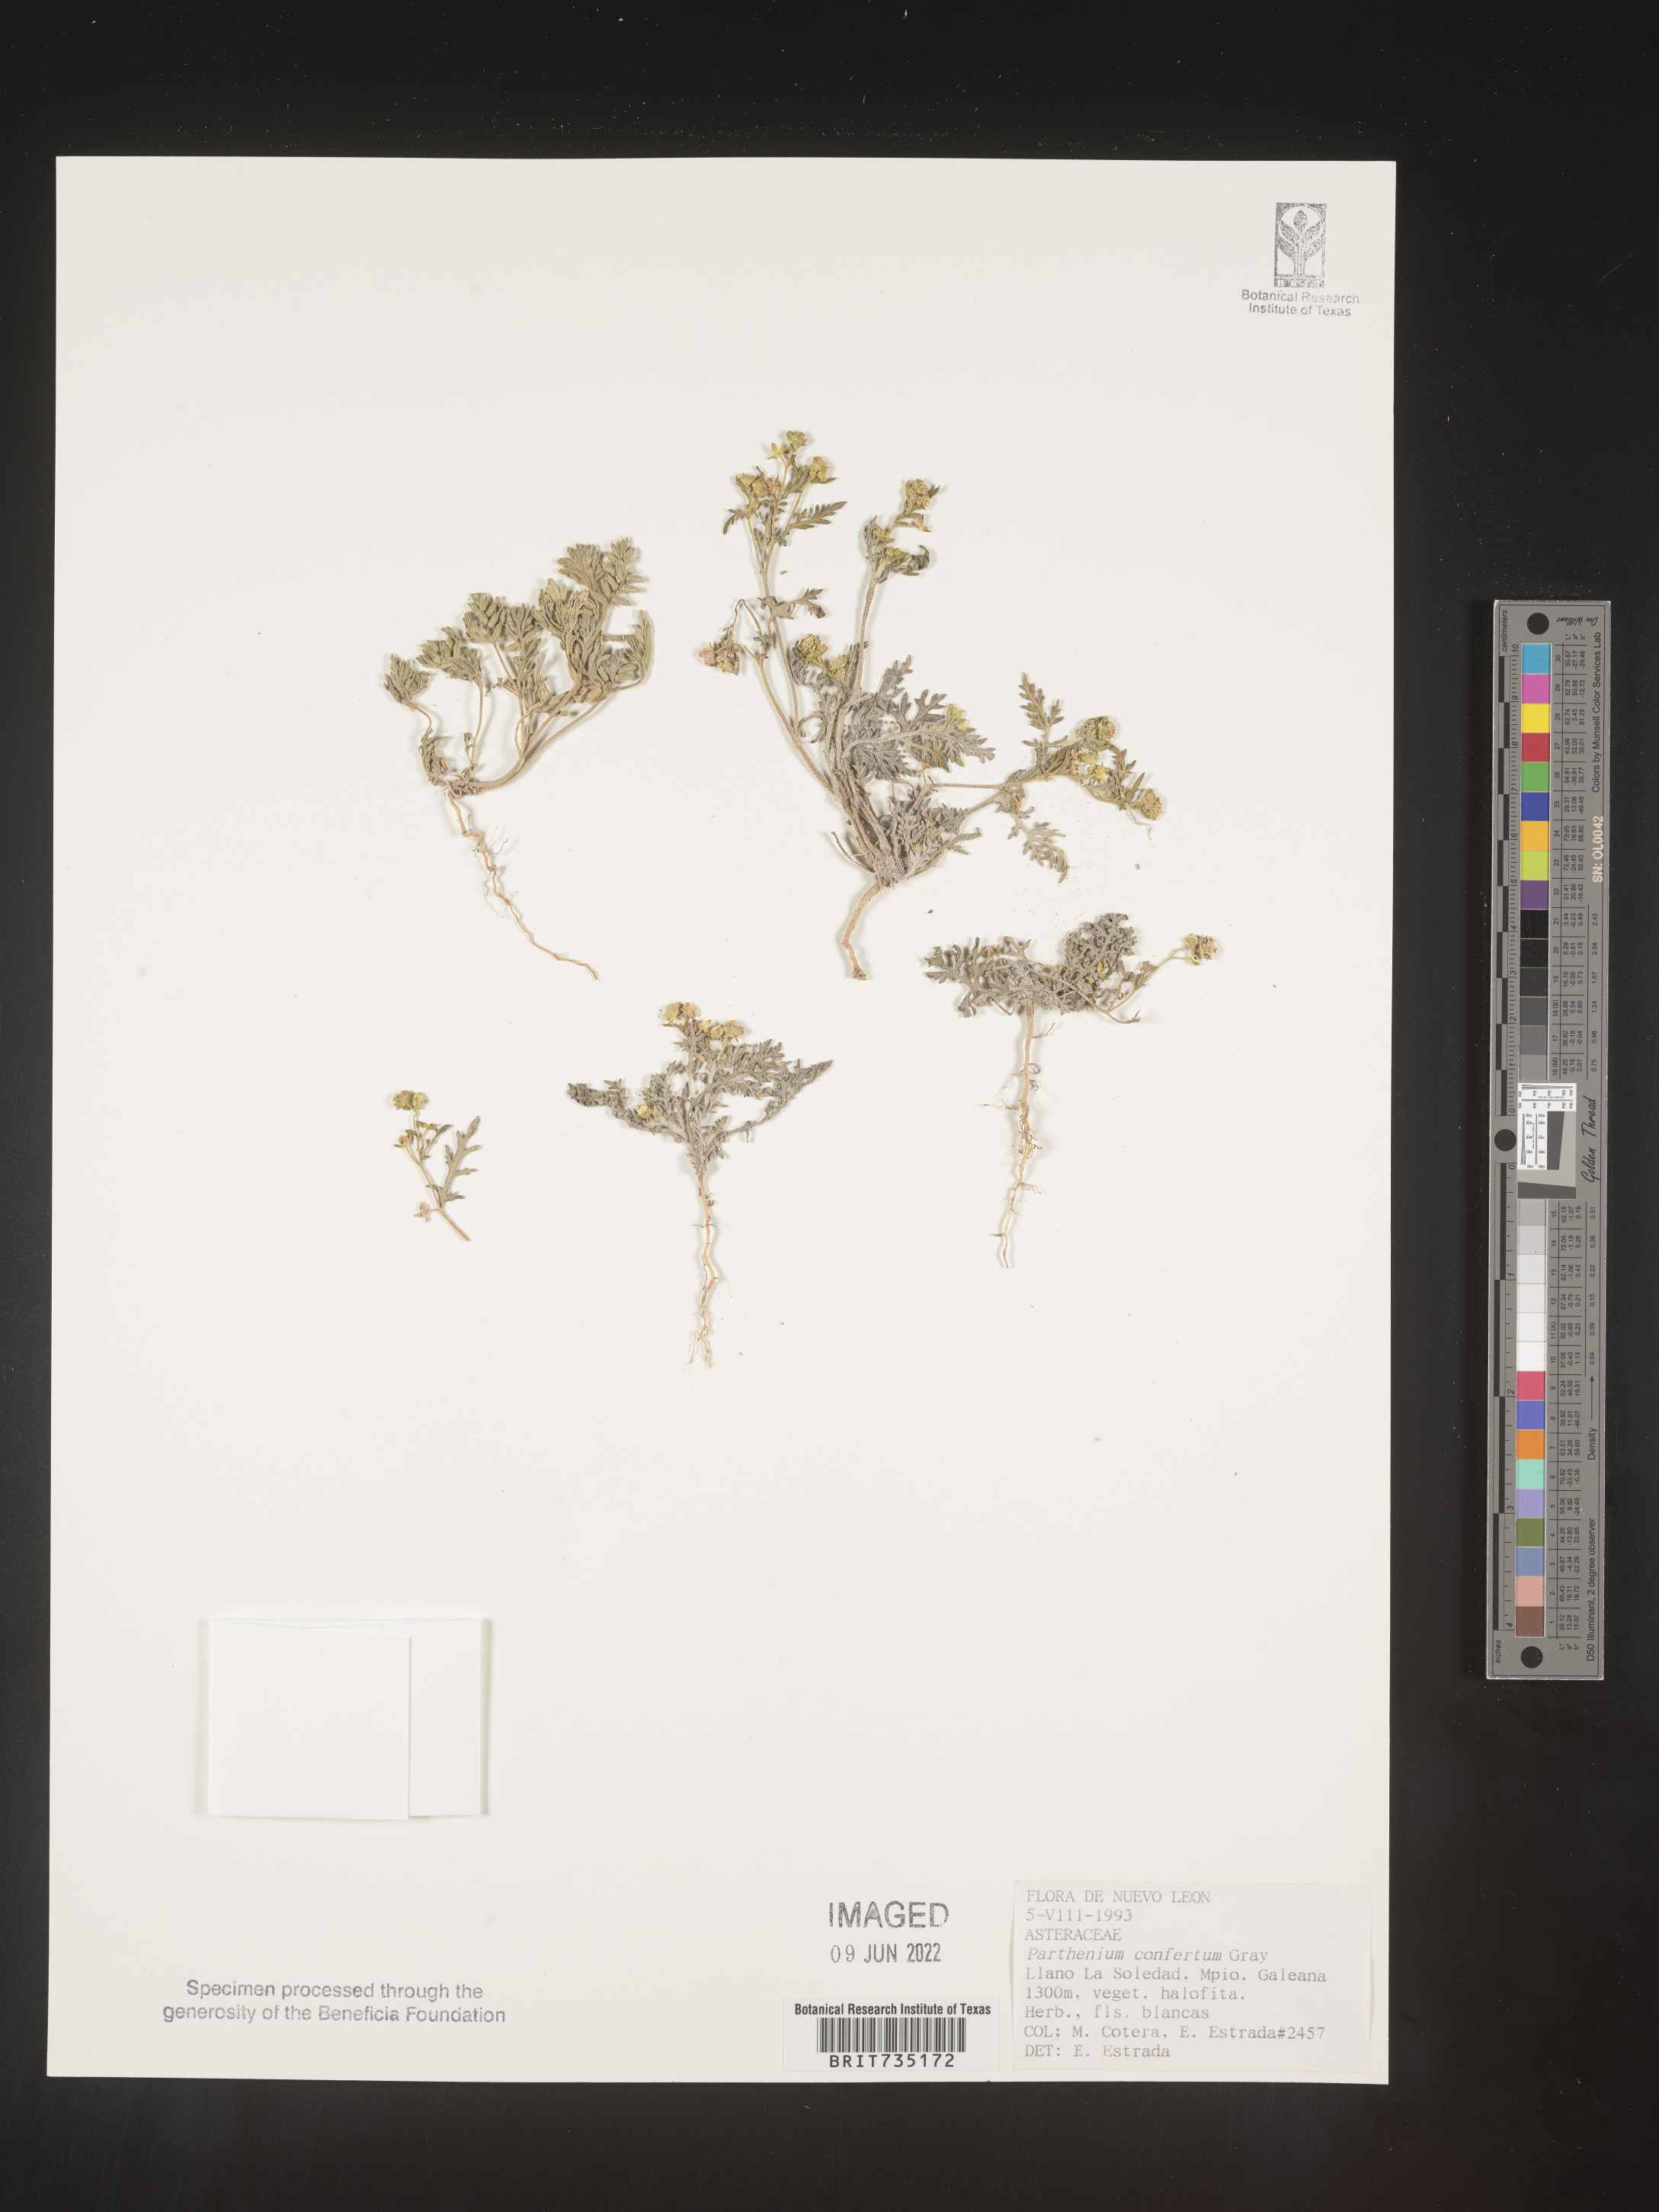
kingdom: Plantae
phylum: Tracheophyta
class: Magnoliopsida
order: Asterales
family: Asteraceae
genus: Parthenium
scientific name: Parthenium
